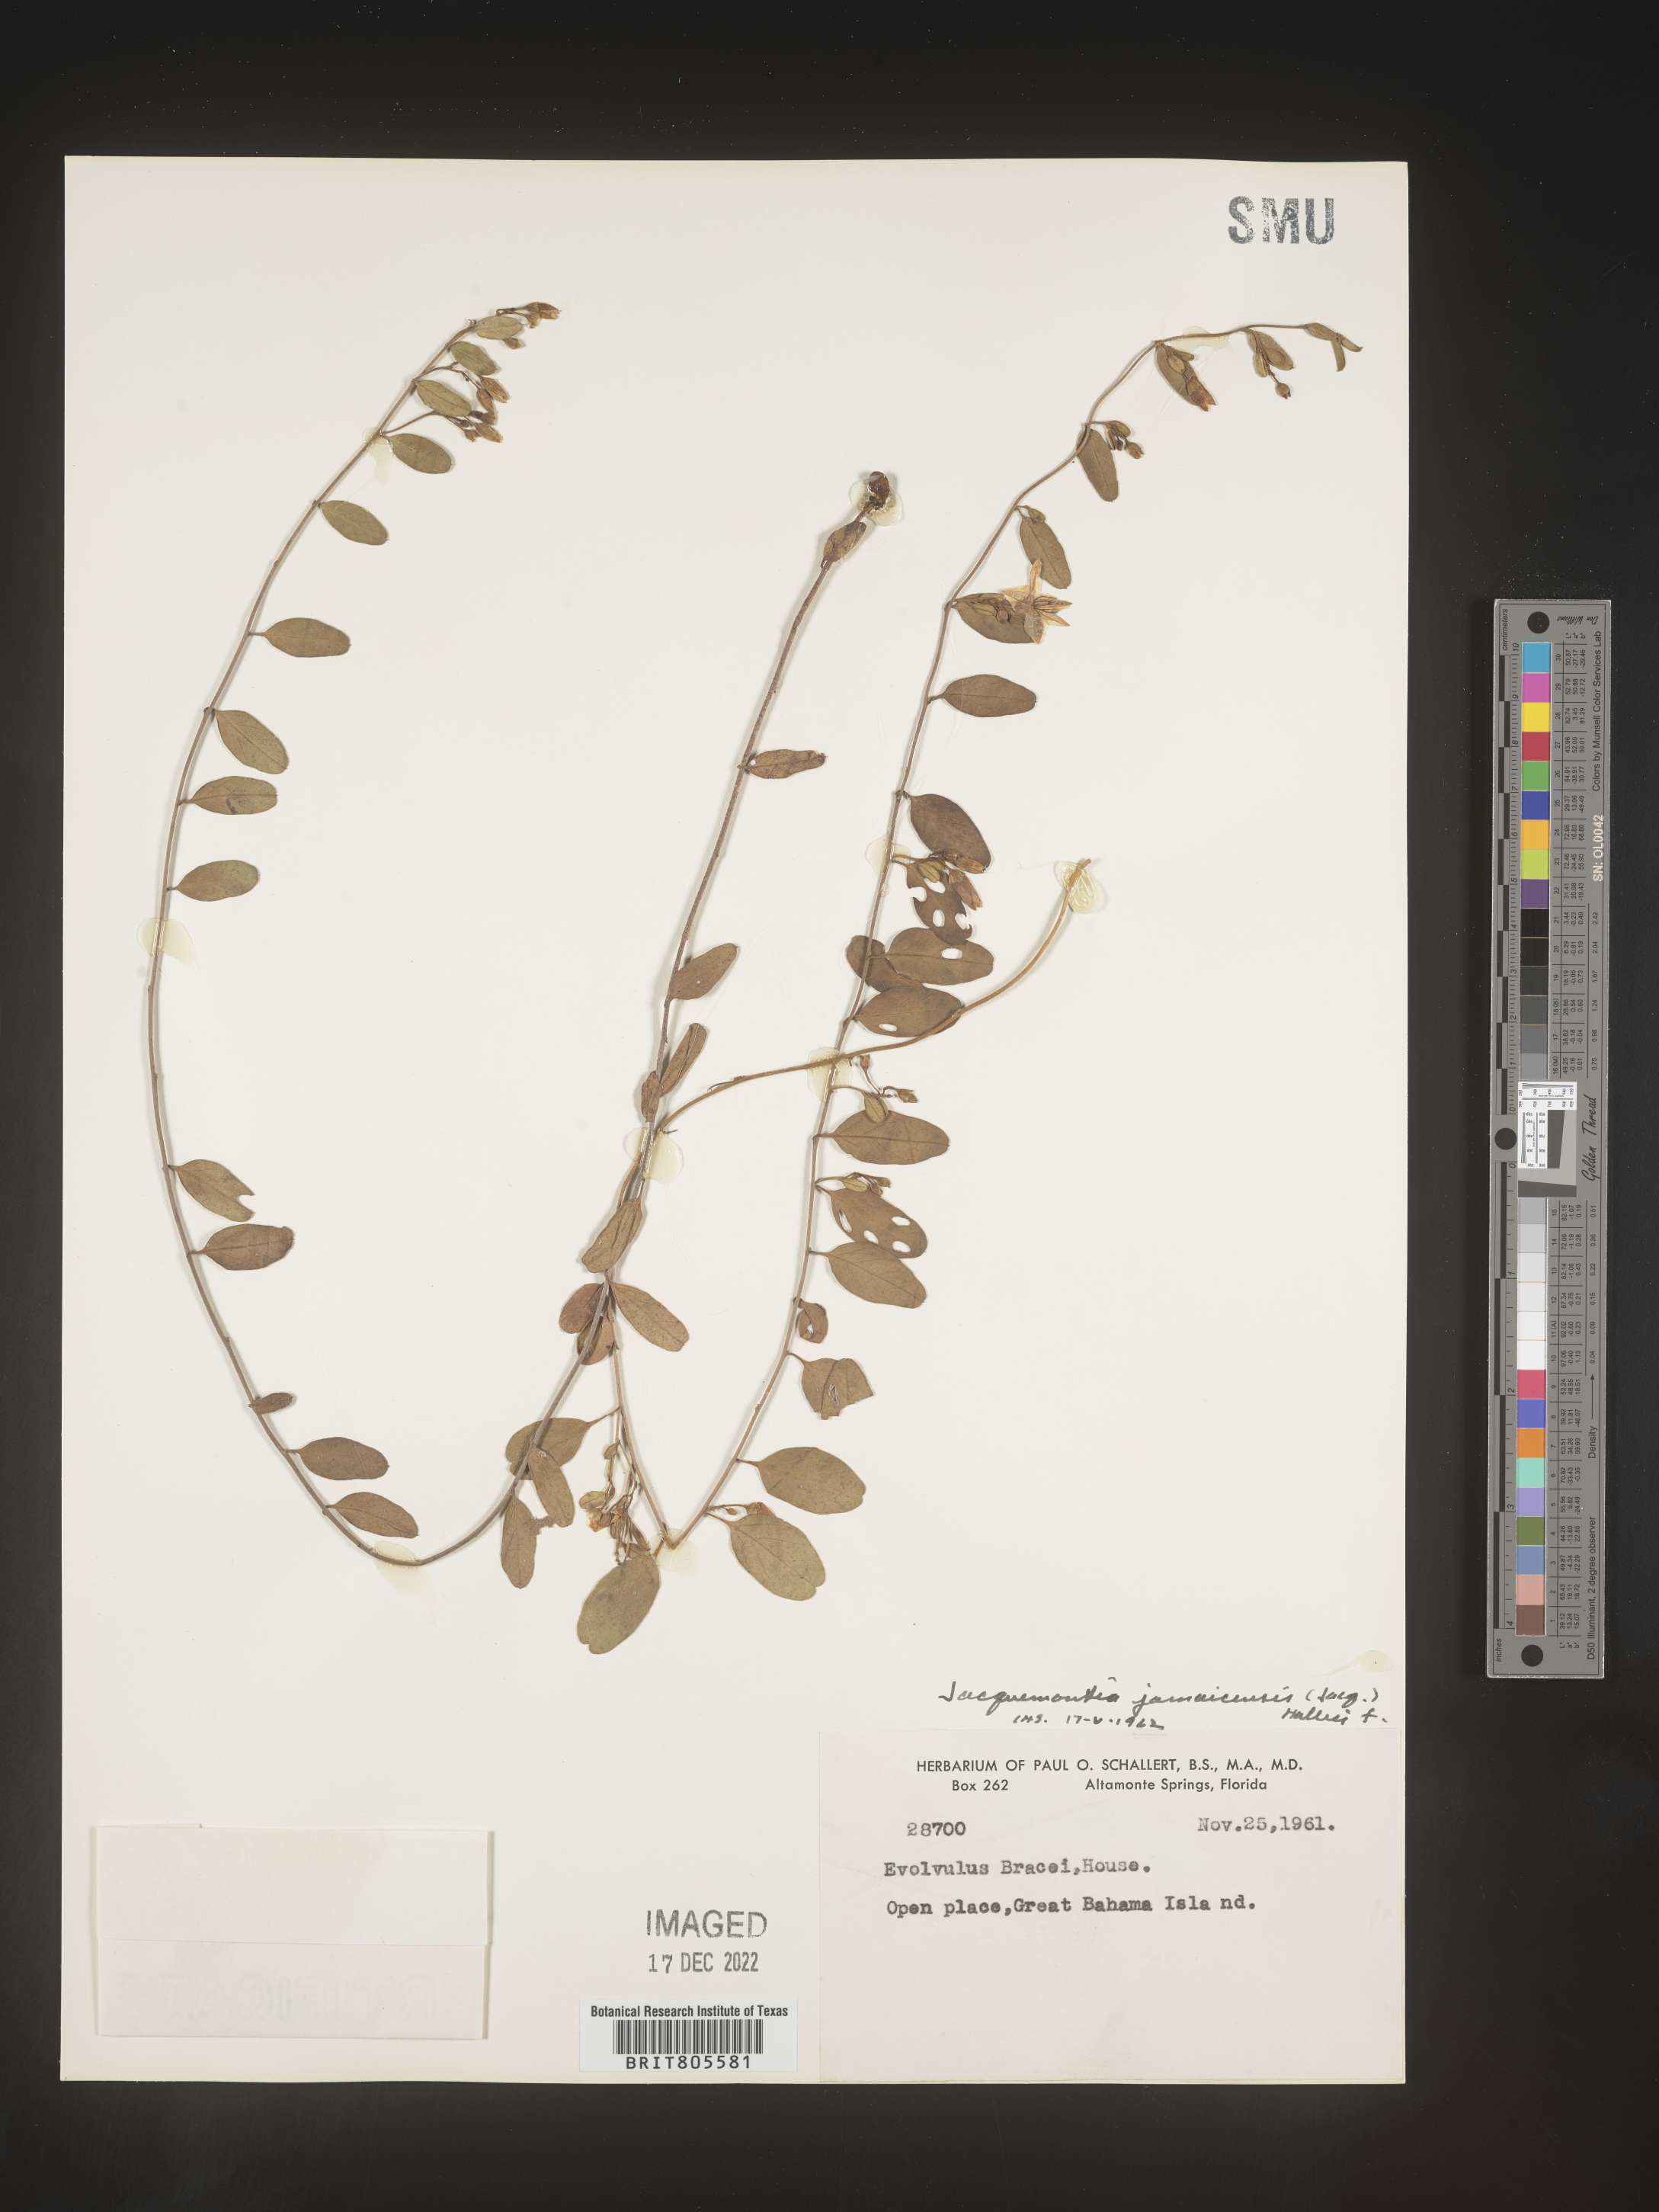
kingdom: Plantae
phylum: Tracheophyta
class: Magnoliopsida
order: Solanales
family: Convolvulaceae
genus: Jacquemontia
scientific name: Jacquemontia
